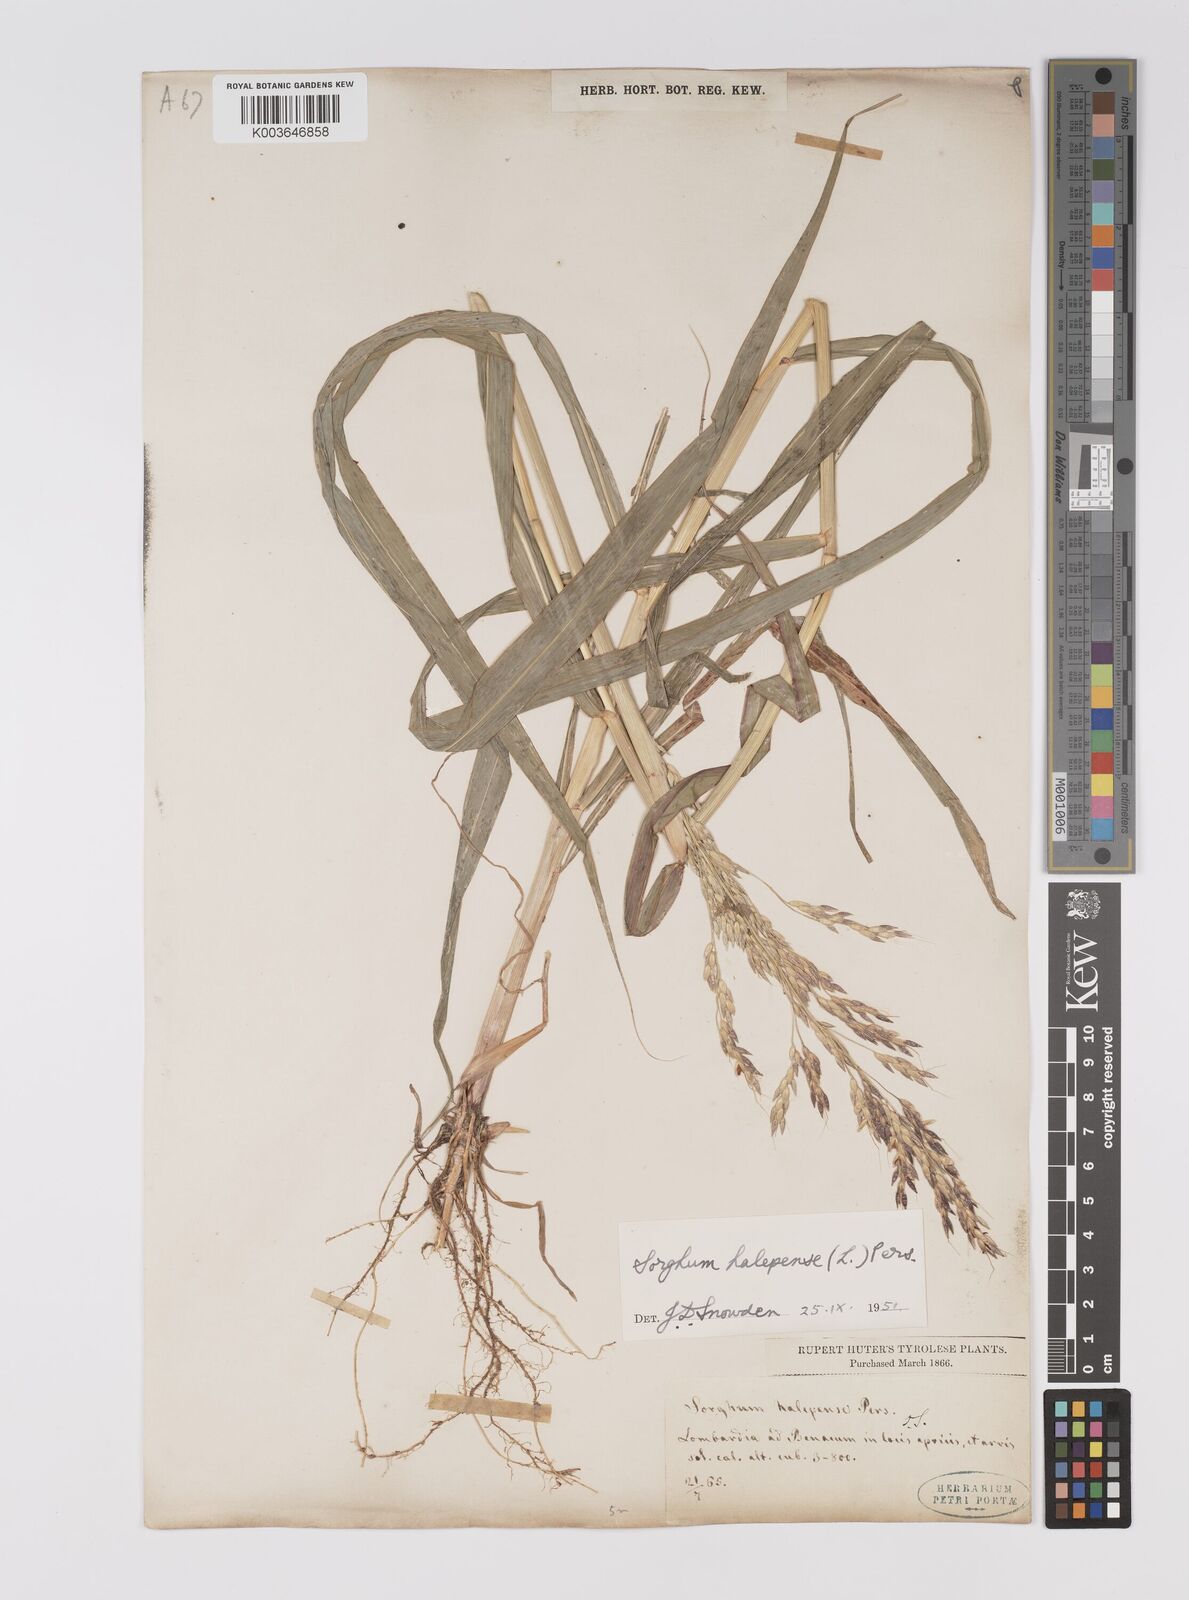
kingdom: Plantae
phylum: Tracheophyta
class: Liliopsida
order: Poales
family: Poaceae
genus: Sorghum
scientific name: Sorghum halepense
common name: Johnson-grass
